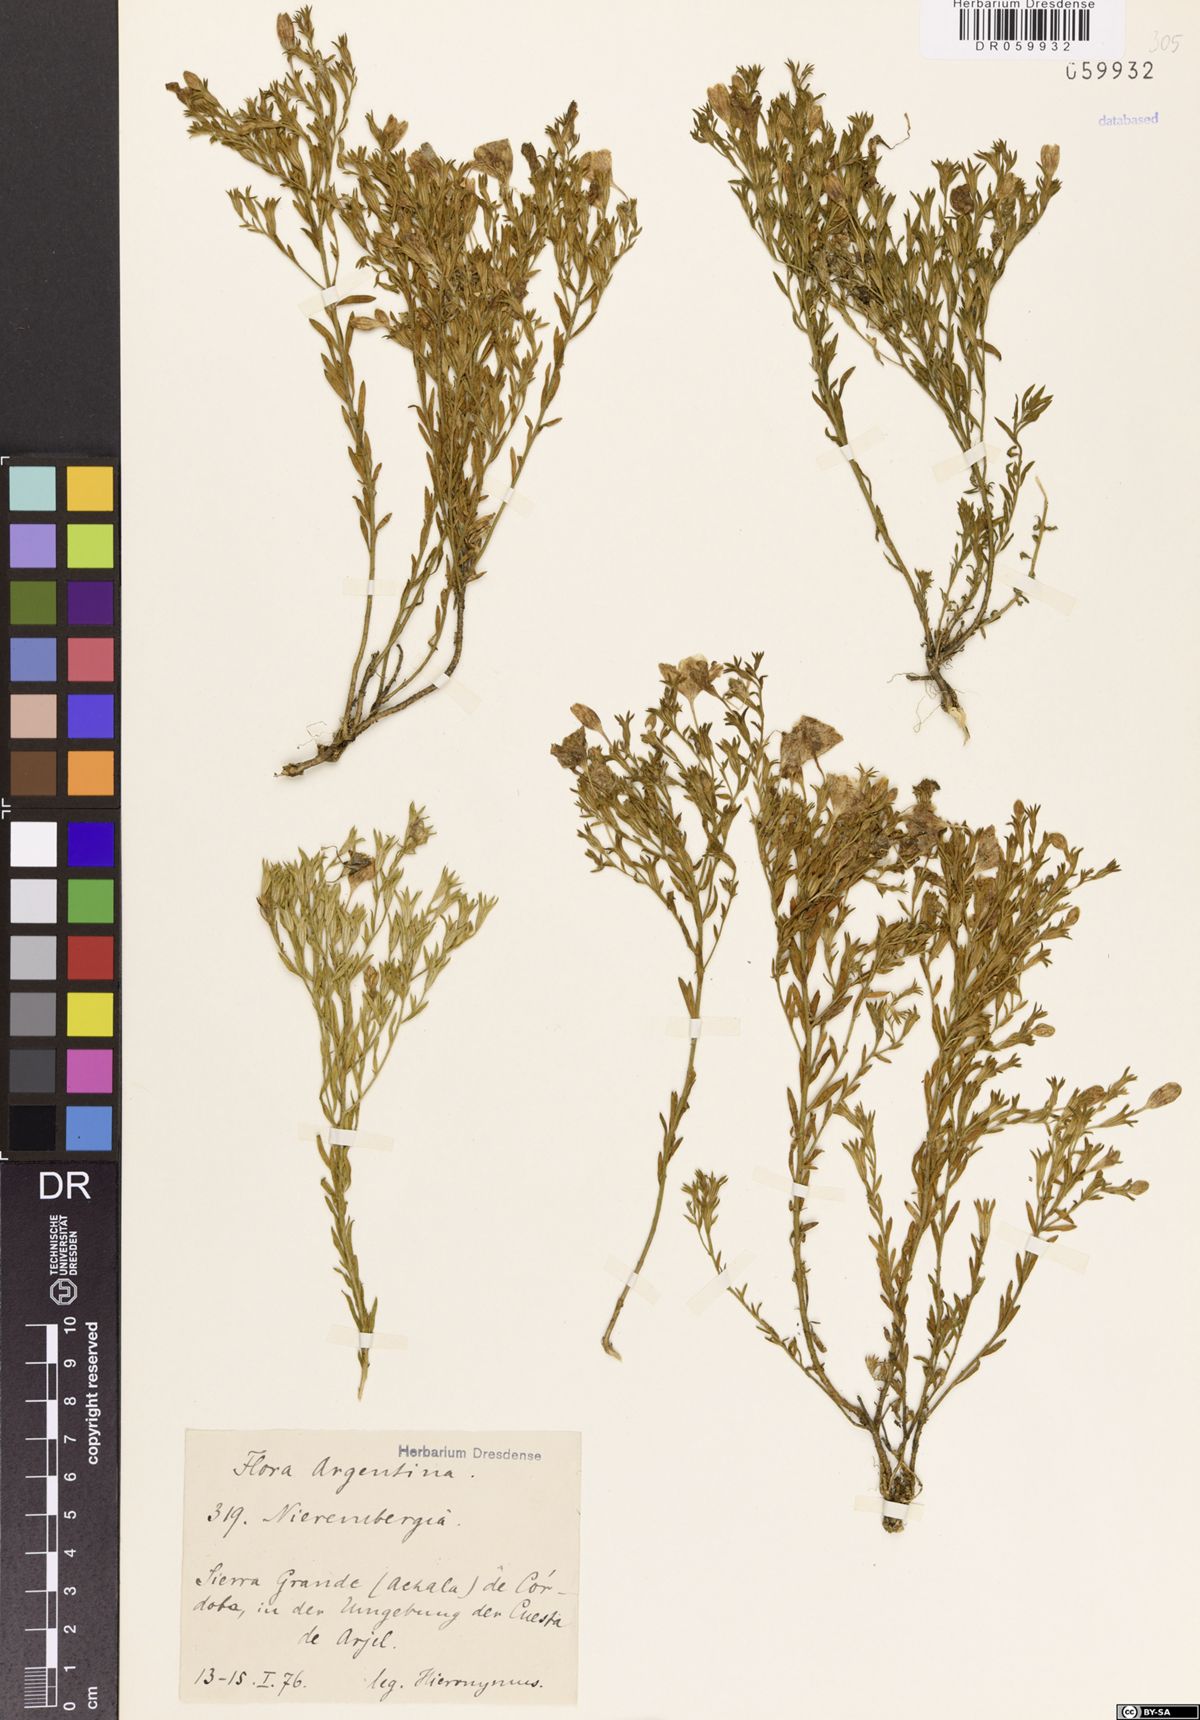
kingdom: Plantae
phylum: Tracheophyta
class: Magnoliopsida
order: Solanales
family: Solanaceae
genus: Nierembergia
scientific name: Nierembergia
